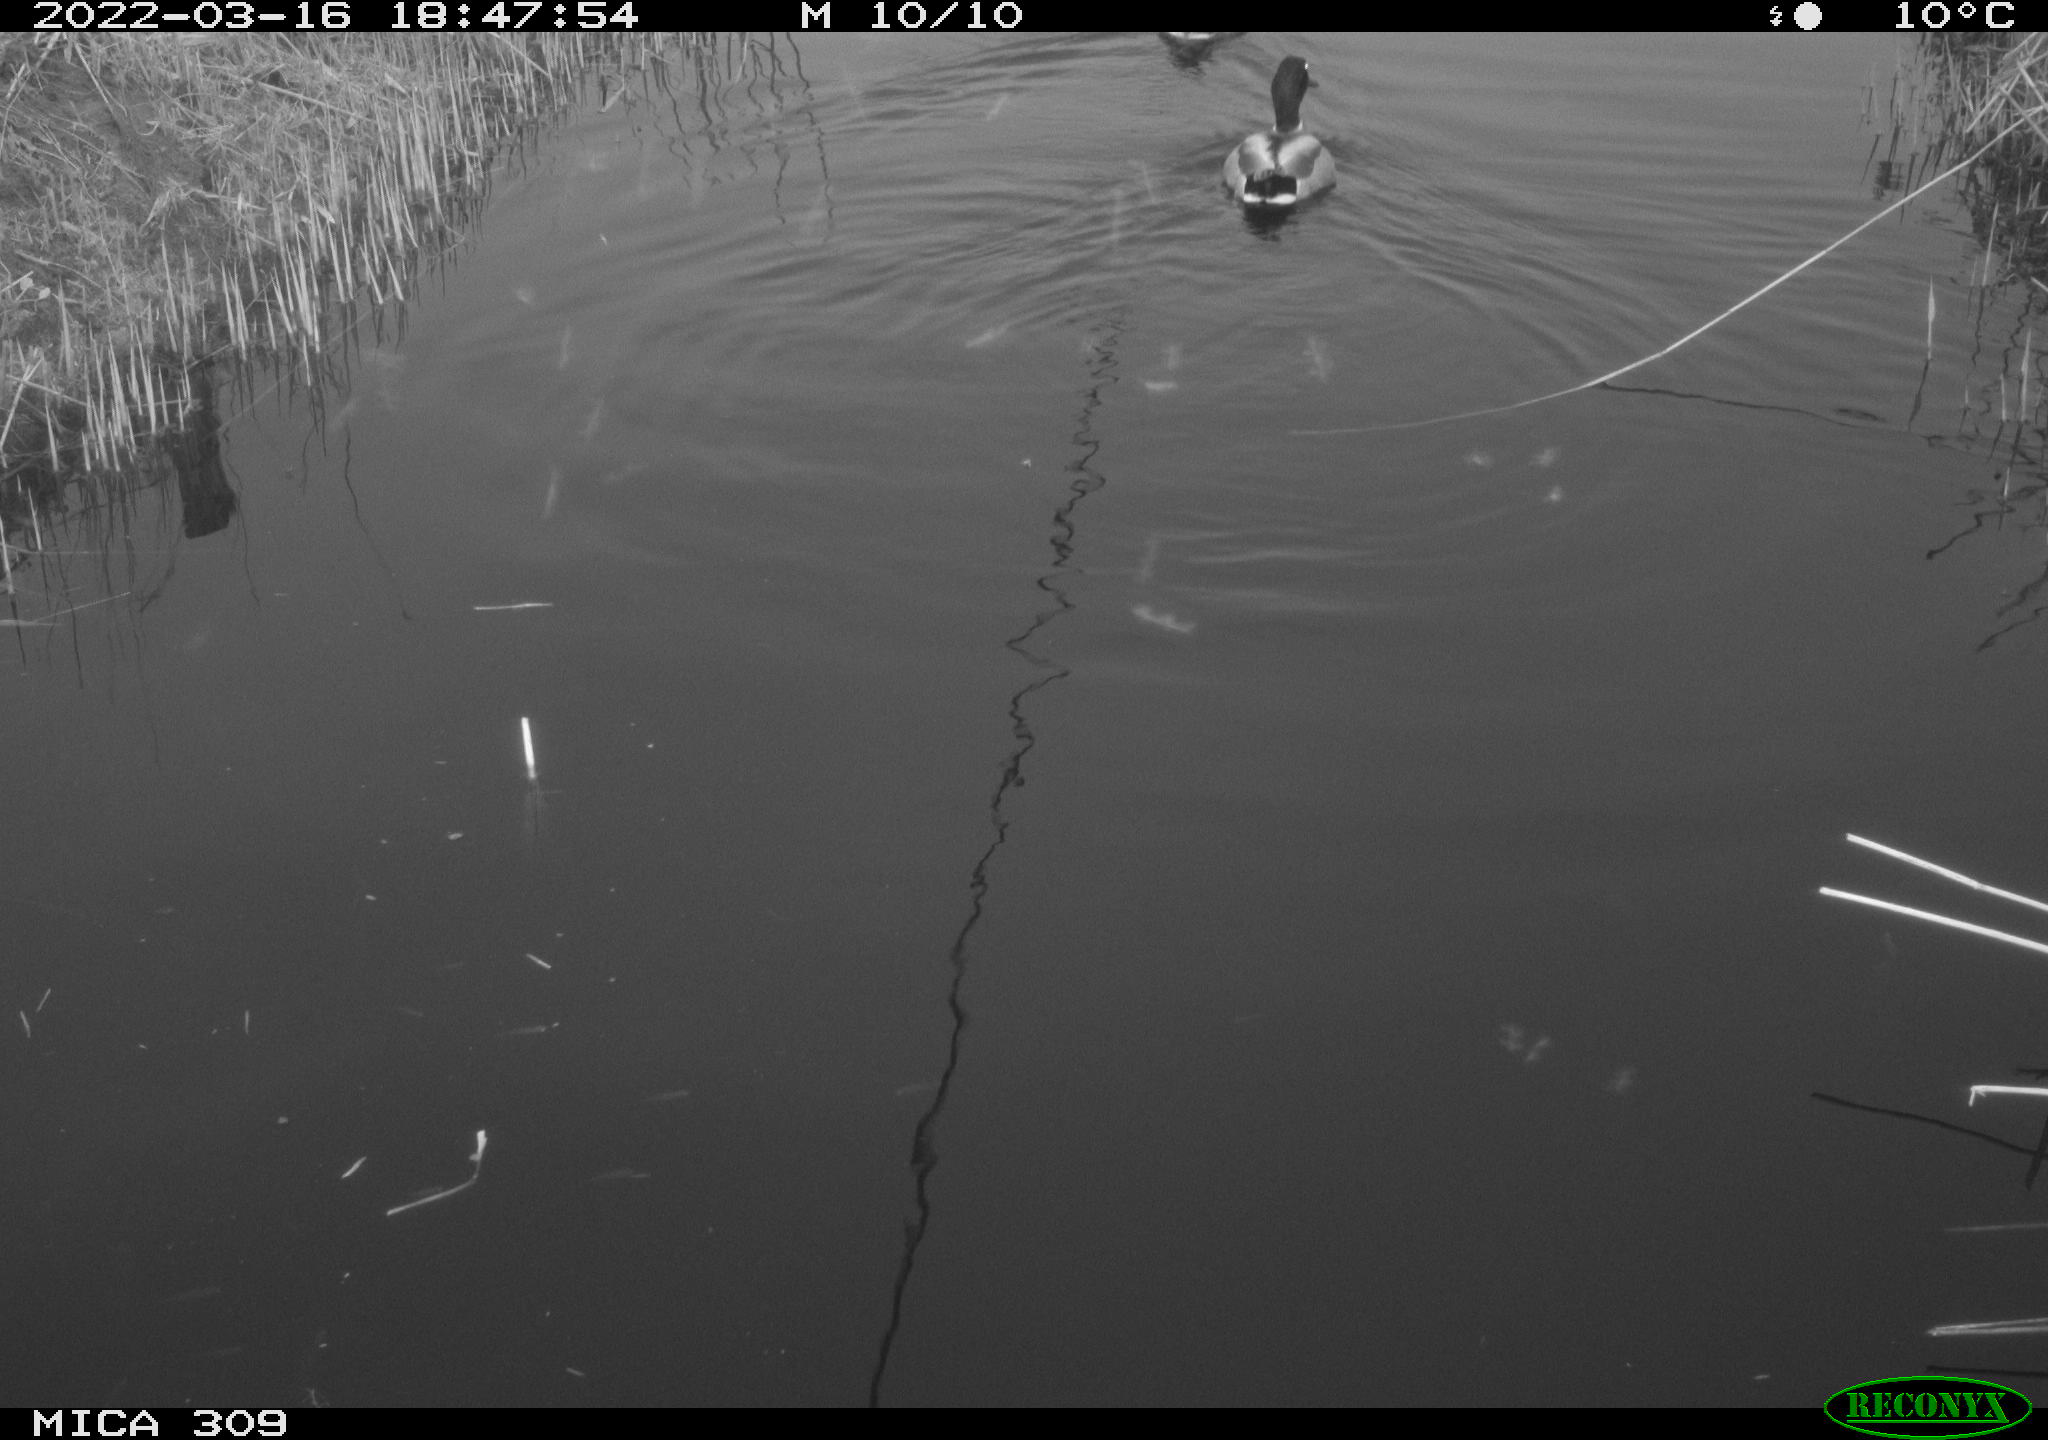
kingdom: Animalia
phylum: Chordata
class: Aves
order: Anseriformes
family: Anatidae
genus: Anas
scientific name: Anas platyrhynchos
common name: Mallard
